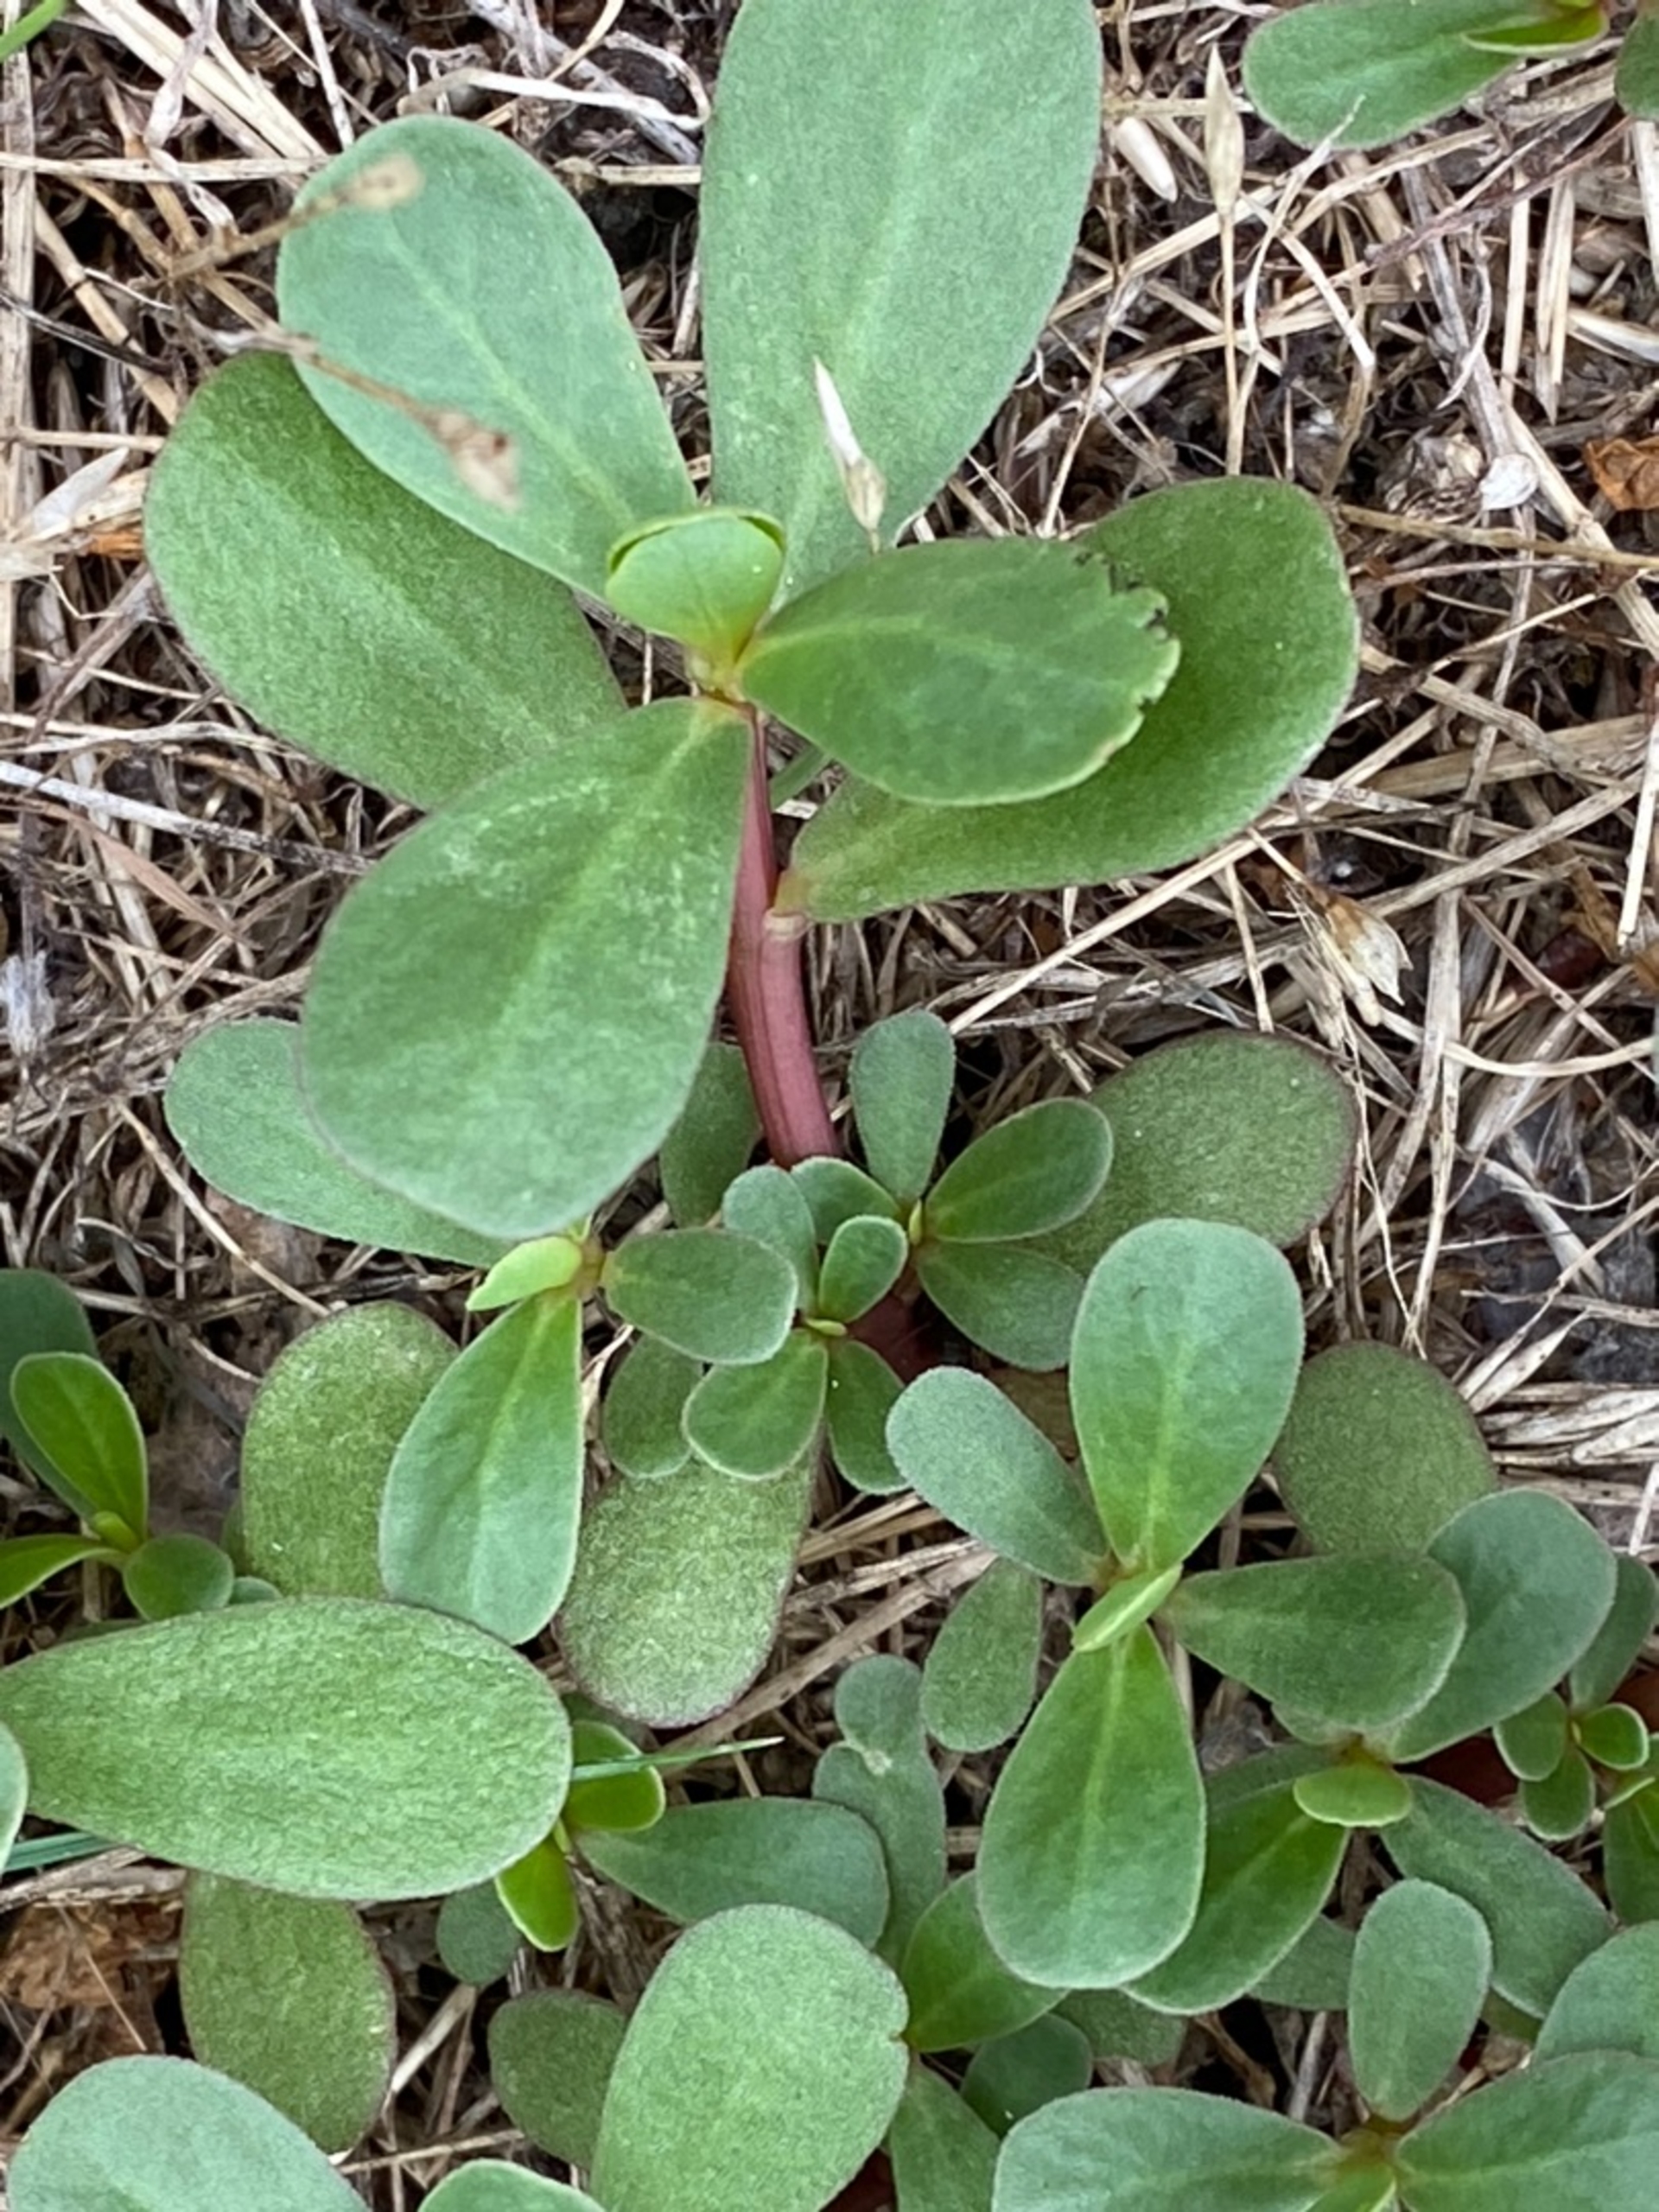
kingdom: Plantae
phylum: Tracheophyta
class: Magnoliopsida
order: Caryophyllales
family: Portulacaceae
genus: Portulaca
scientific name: Portulaca oleracea
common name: Portulak
